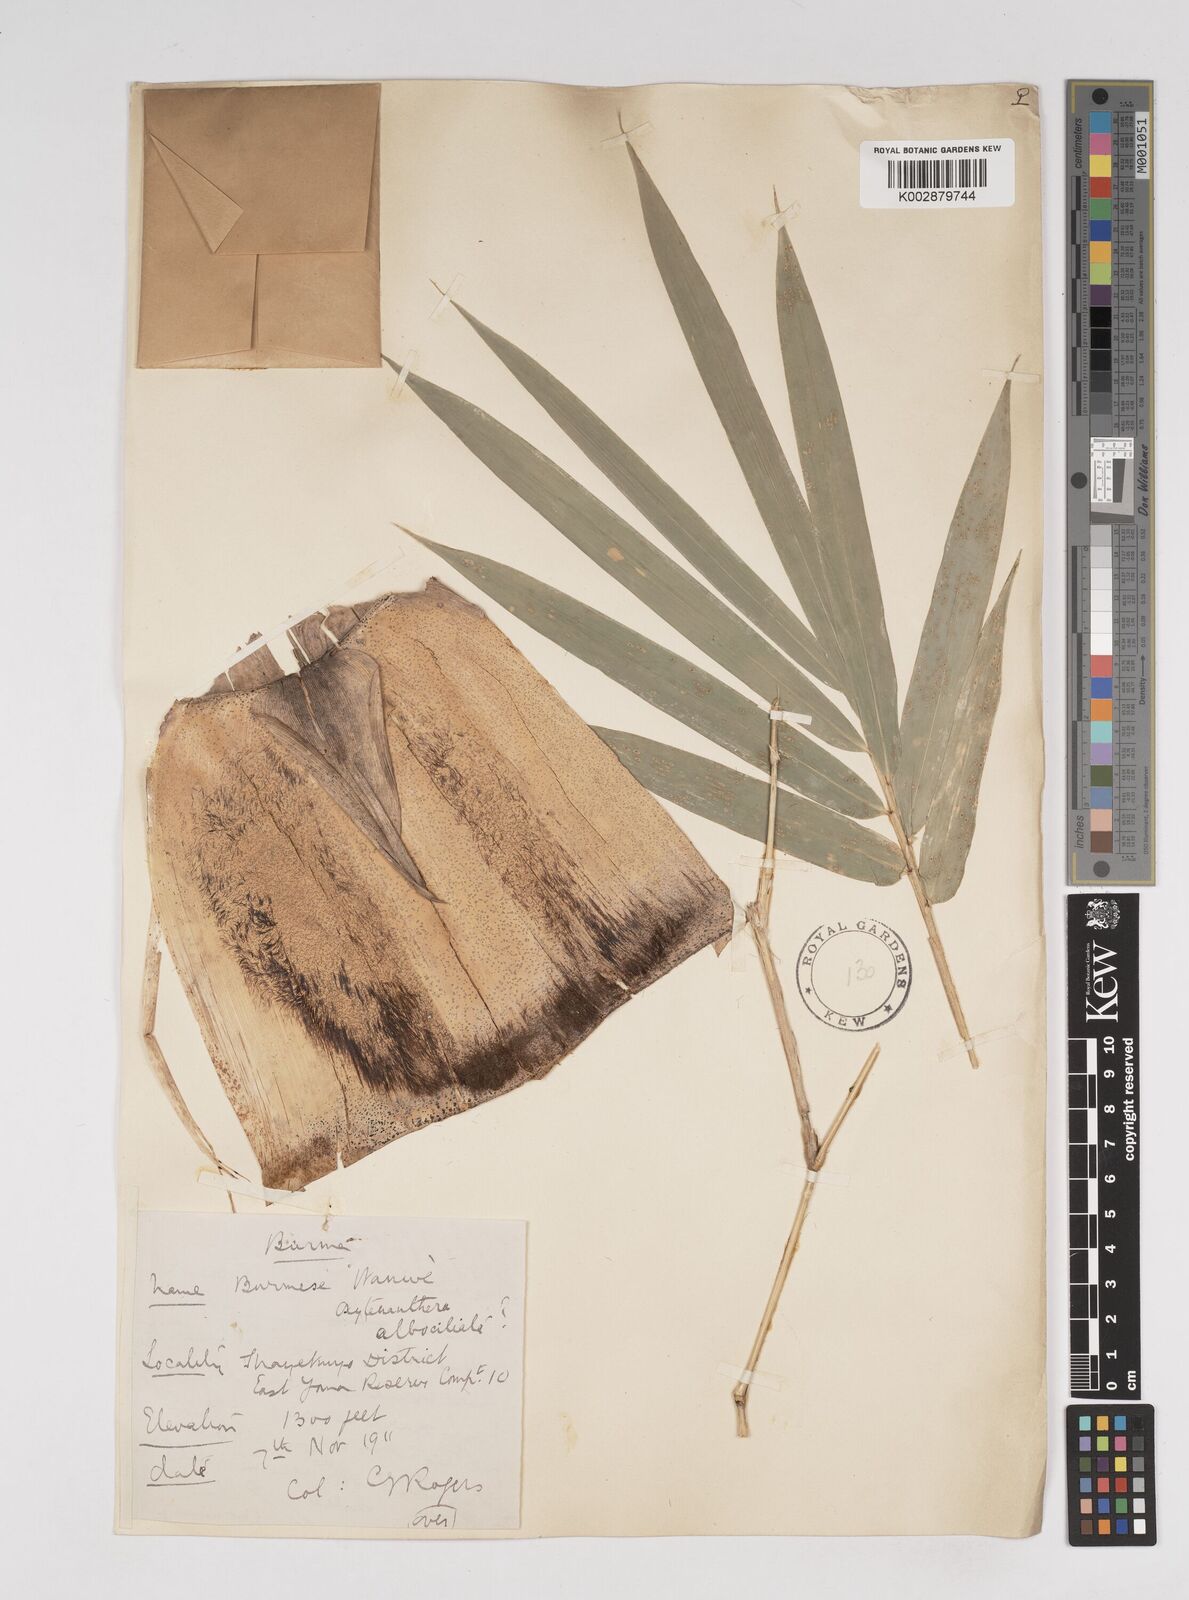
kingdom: Plantae
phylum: Tracheophyta
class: Liliopsida
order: Poales
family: Poaceae
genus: Gigantochloa
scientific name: Gigantochloa albociliata
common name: White-fringe gigantochloa
